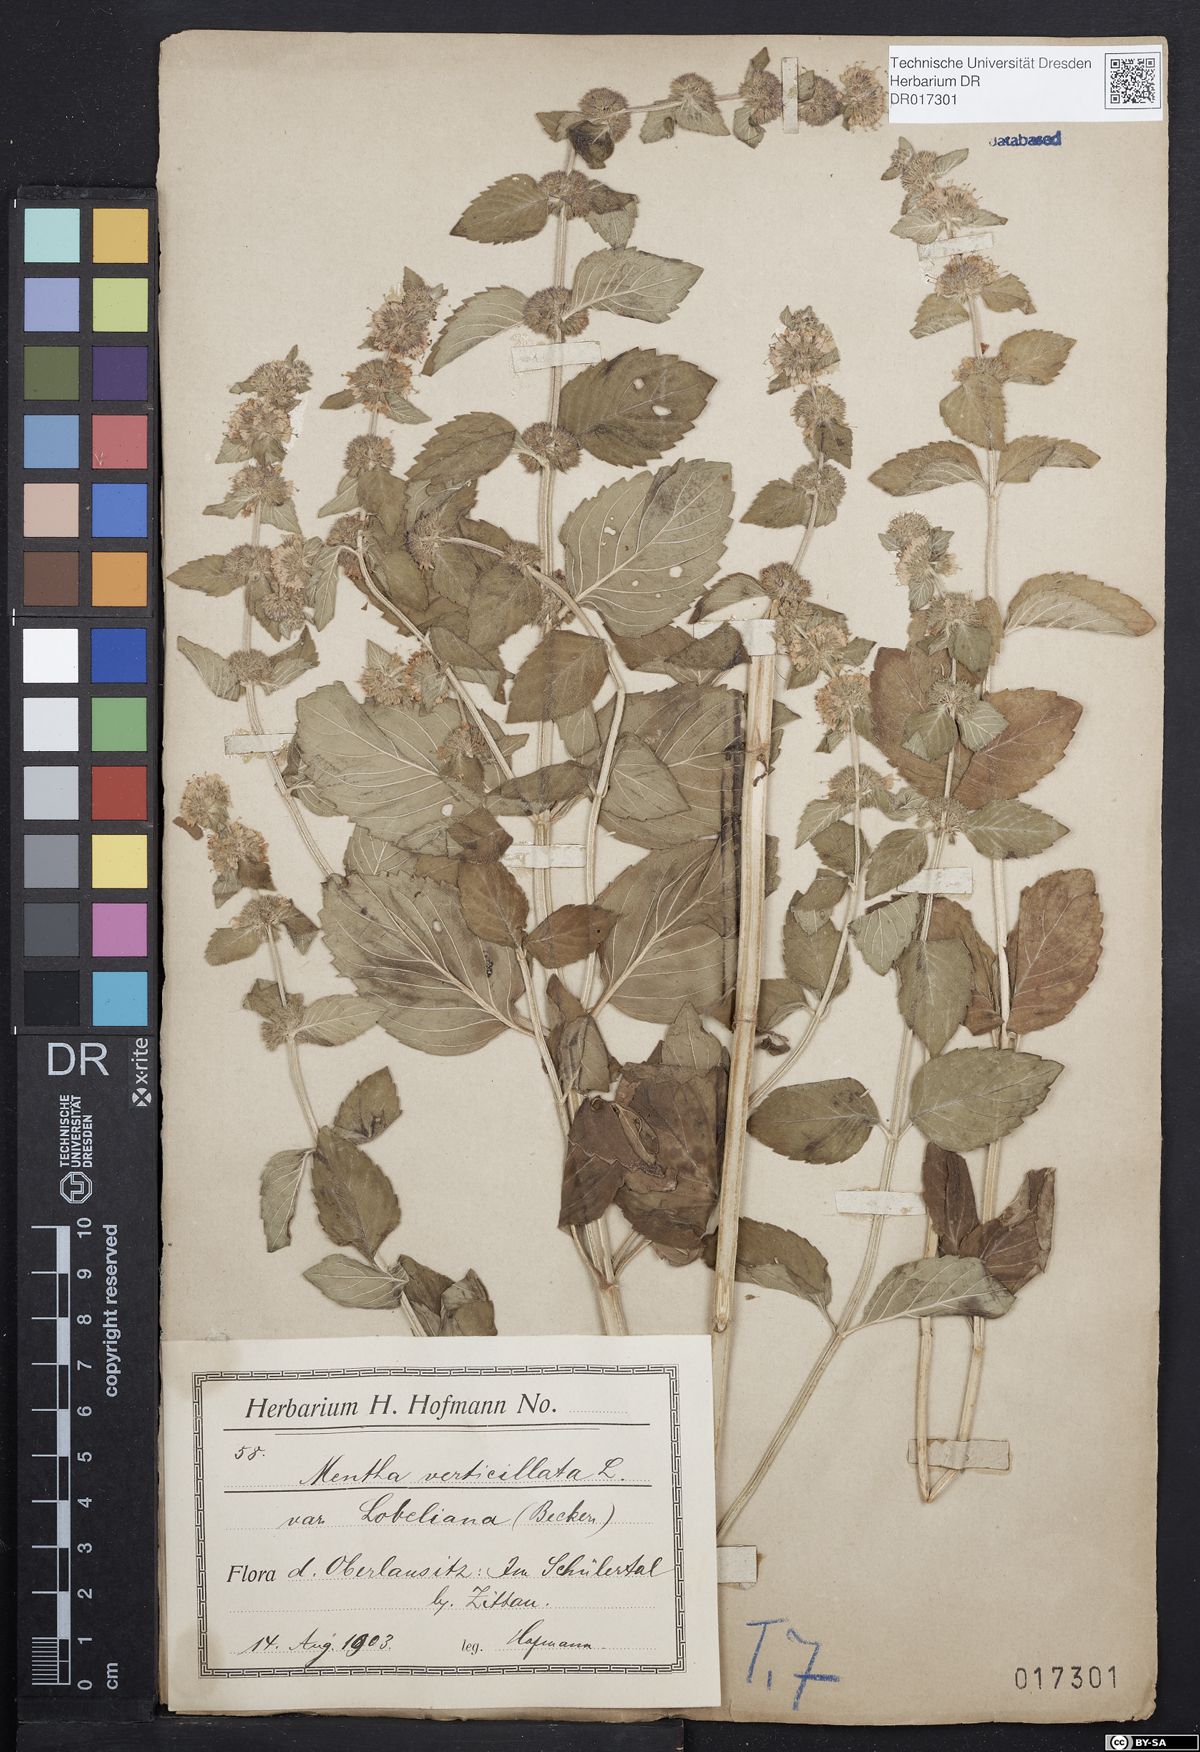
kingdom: Plantae
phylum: Tracheophyta
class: Magnoliopsida
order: Lamiales
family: Lamiaceae
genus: Mentha
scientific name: Mentha verticillata
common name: Mint
